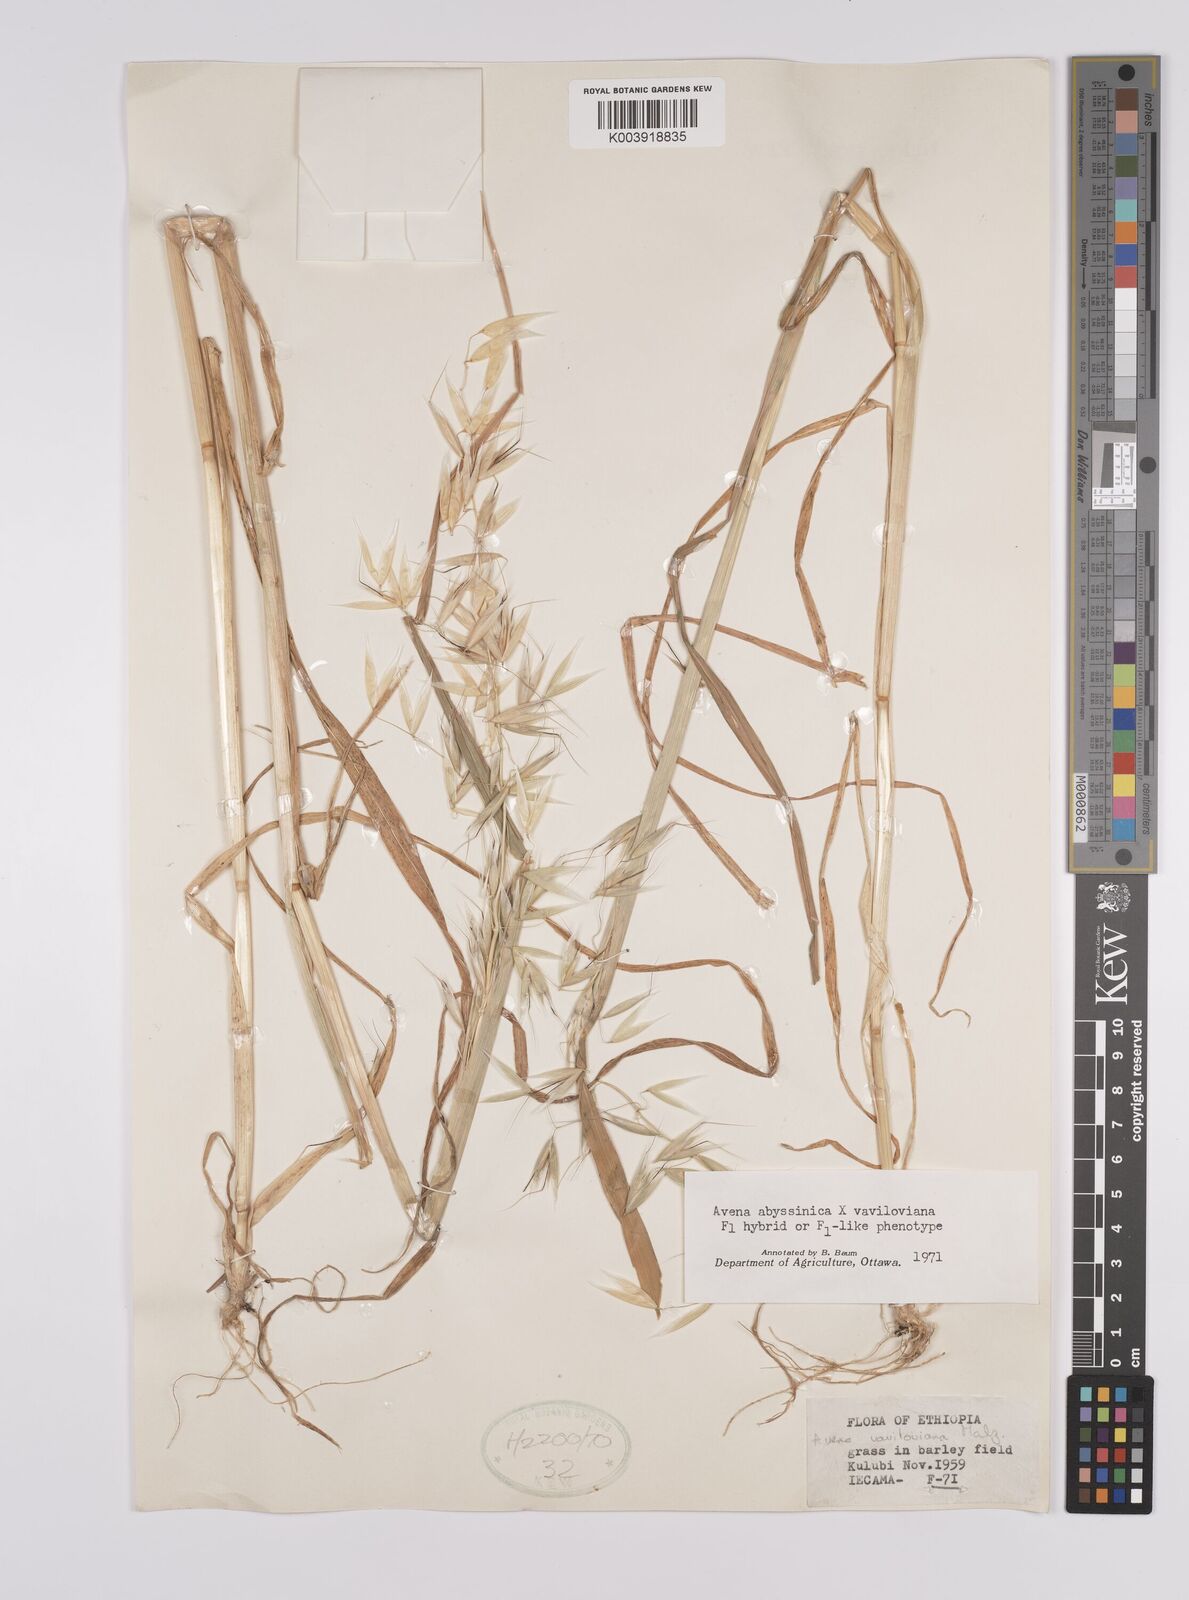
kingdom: Plantae
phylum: Tracheophyta
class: Liliopsida
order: Poales
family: Poaceae
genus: Avena
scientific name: Avena abyssinica
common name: Ethiopian oat
